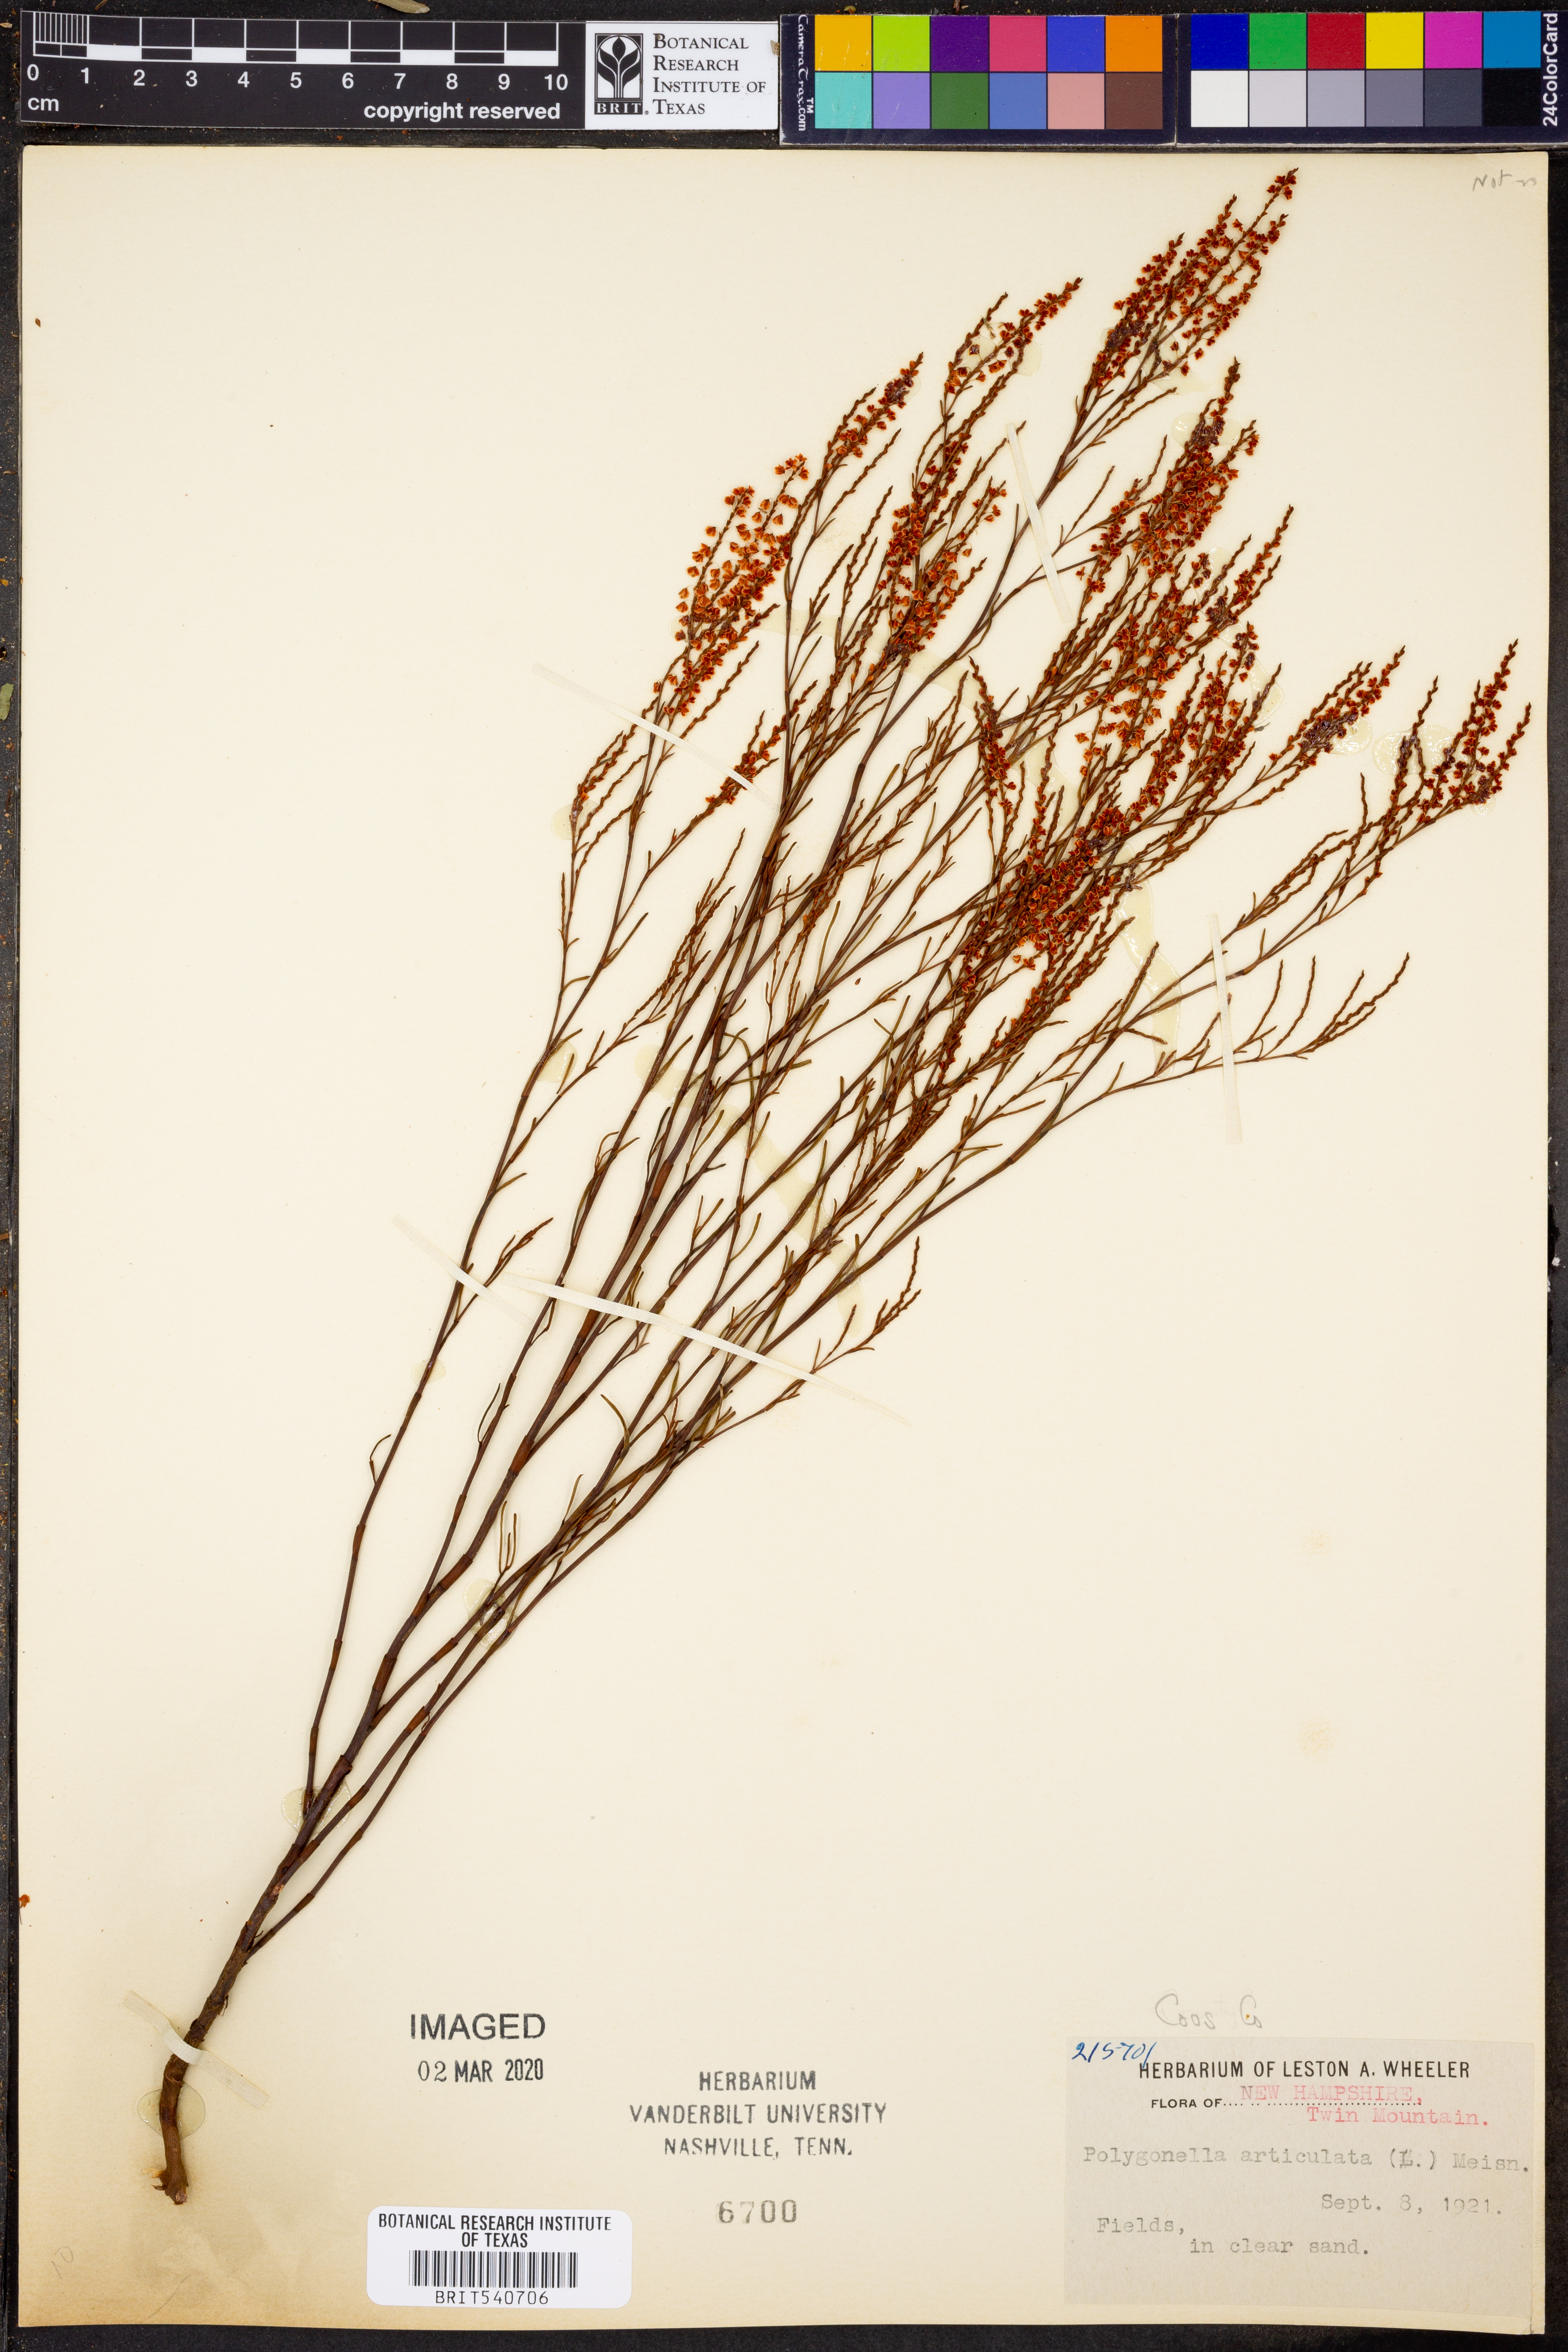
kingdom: Plantae
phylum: Tracheophyta
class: Magnoliopsida
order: Caryophyllales
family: Polygonaceae
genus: Polygonella
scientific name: Polygonella articulata
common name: Coastal jointweed
